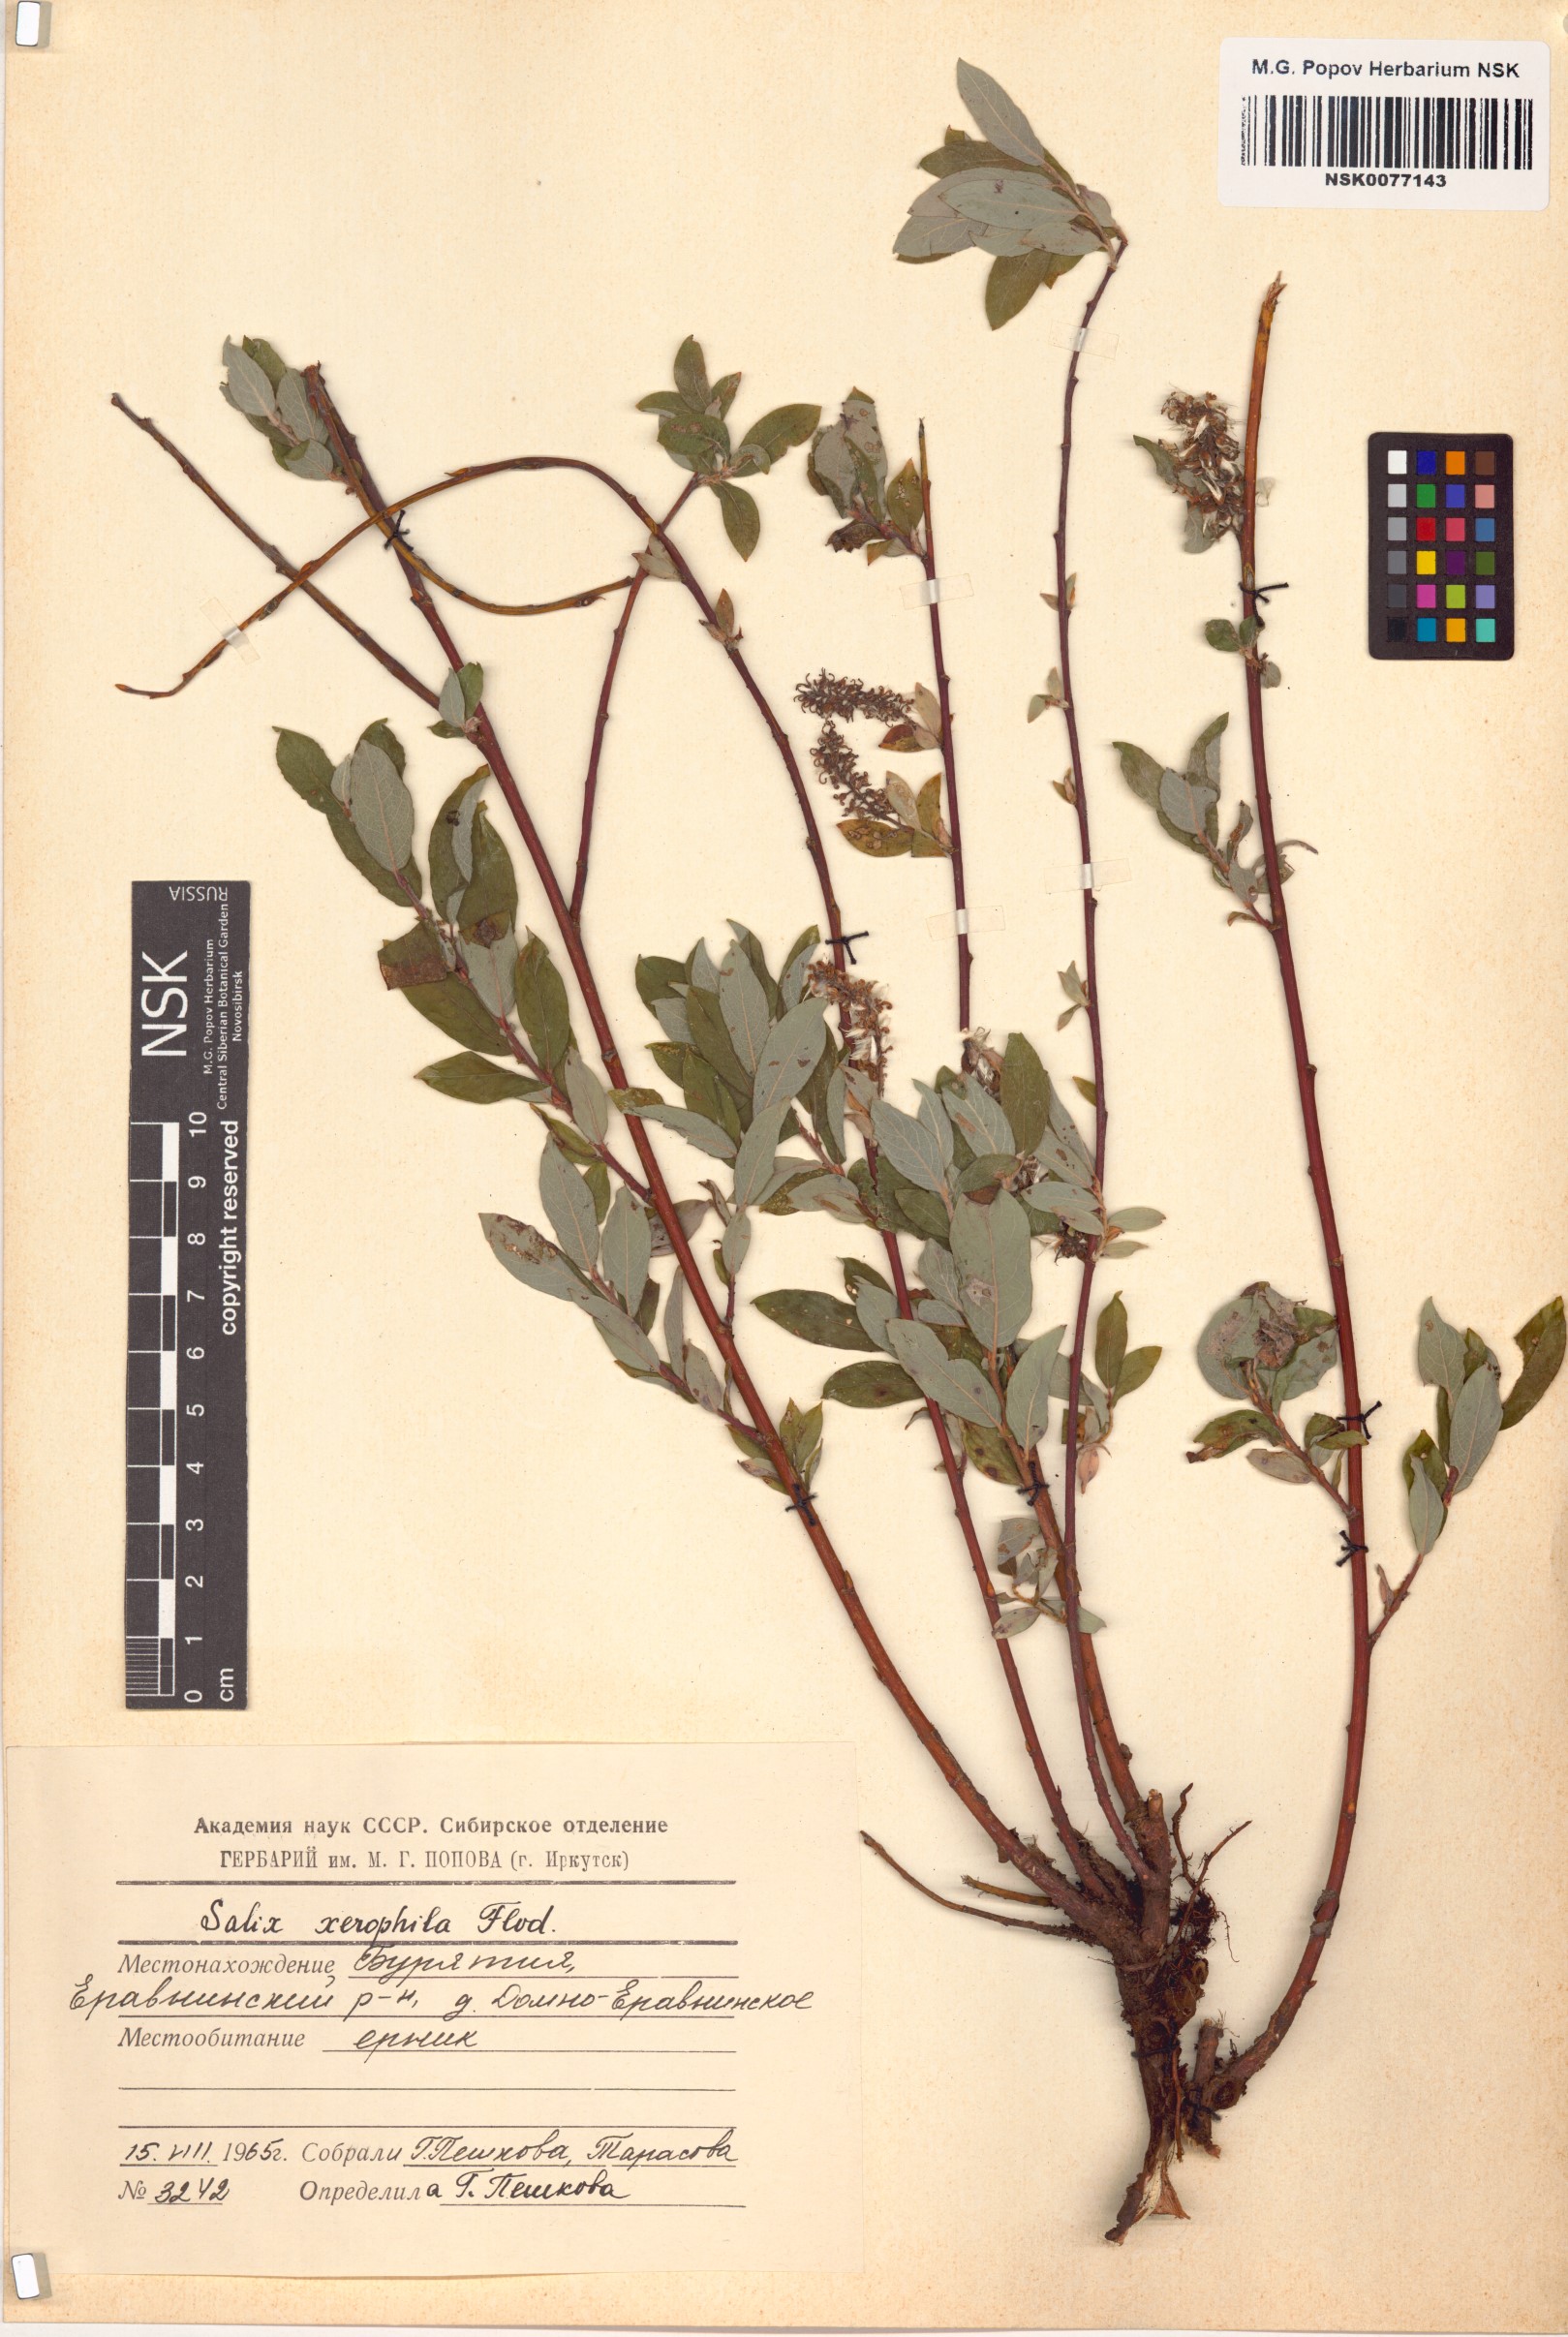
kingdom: Plantae
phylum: Tracheophyta
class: Magnoliopsida
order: Malpighiales
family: Salicaceae
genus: Salix
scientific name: Salix bebbiana
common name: Bebb's willow
